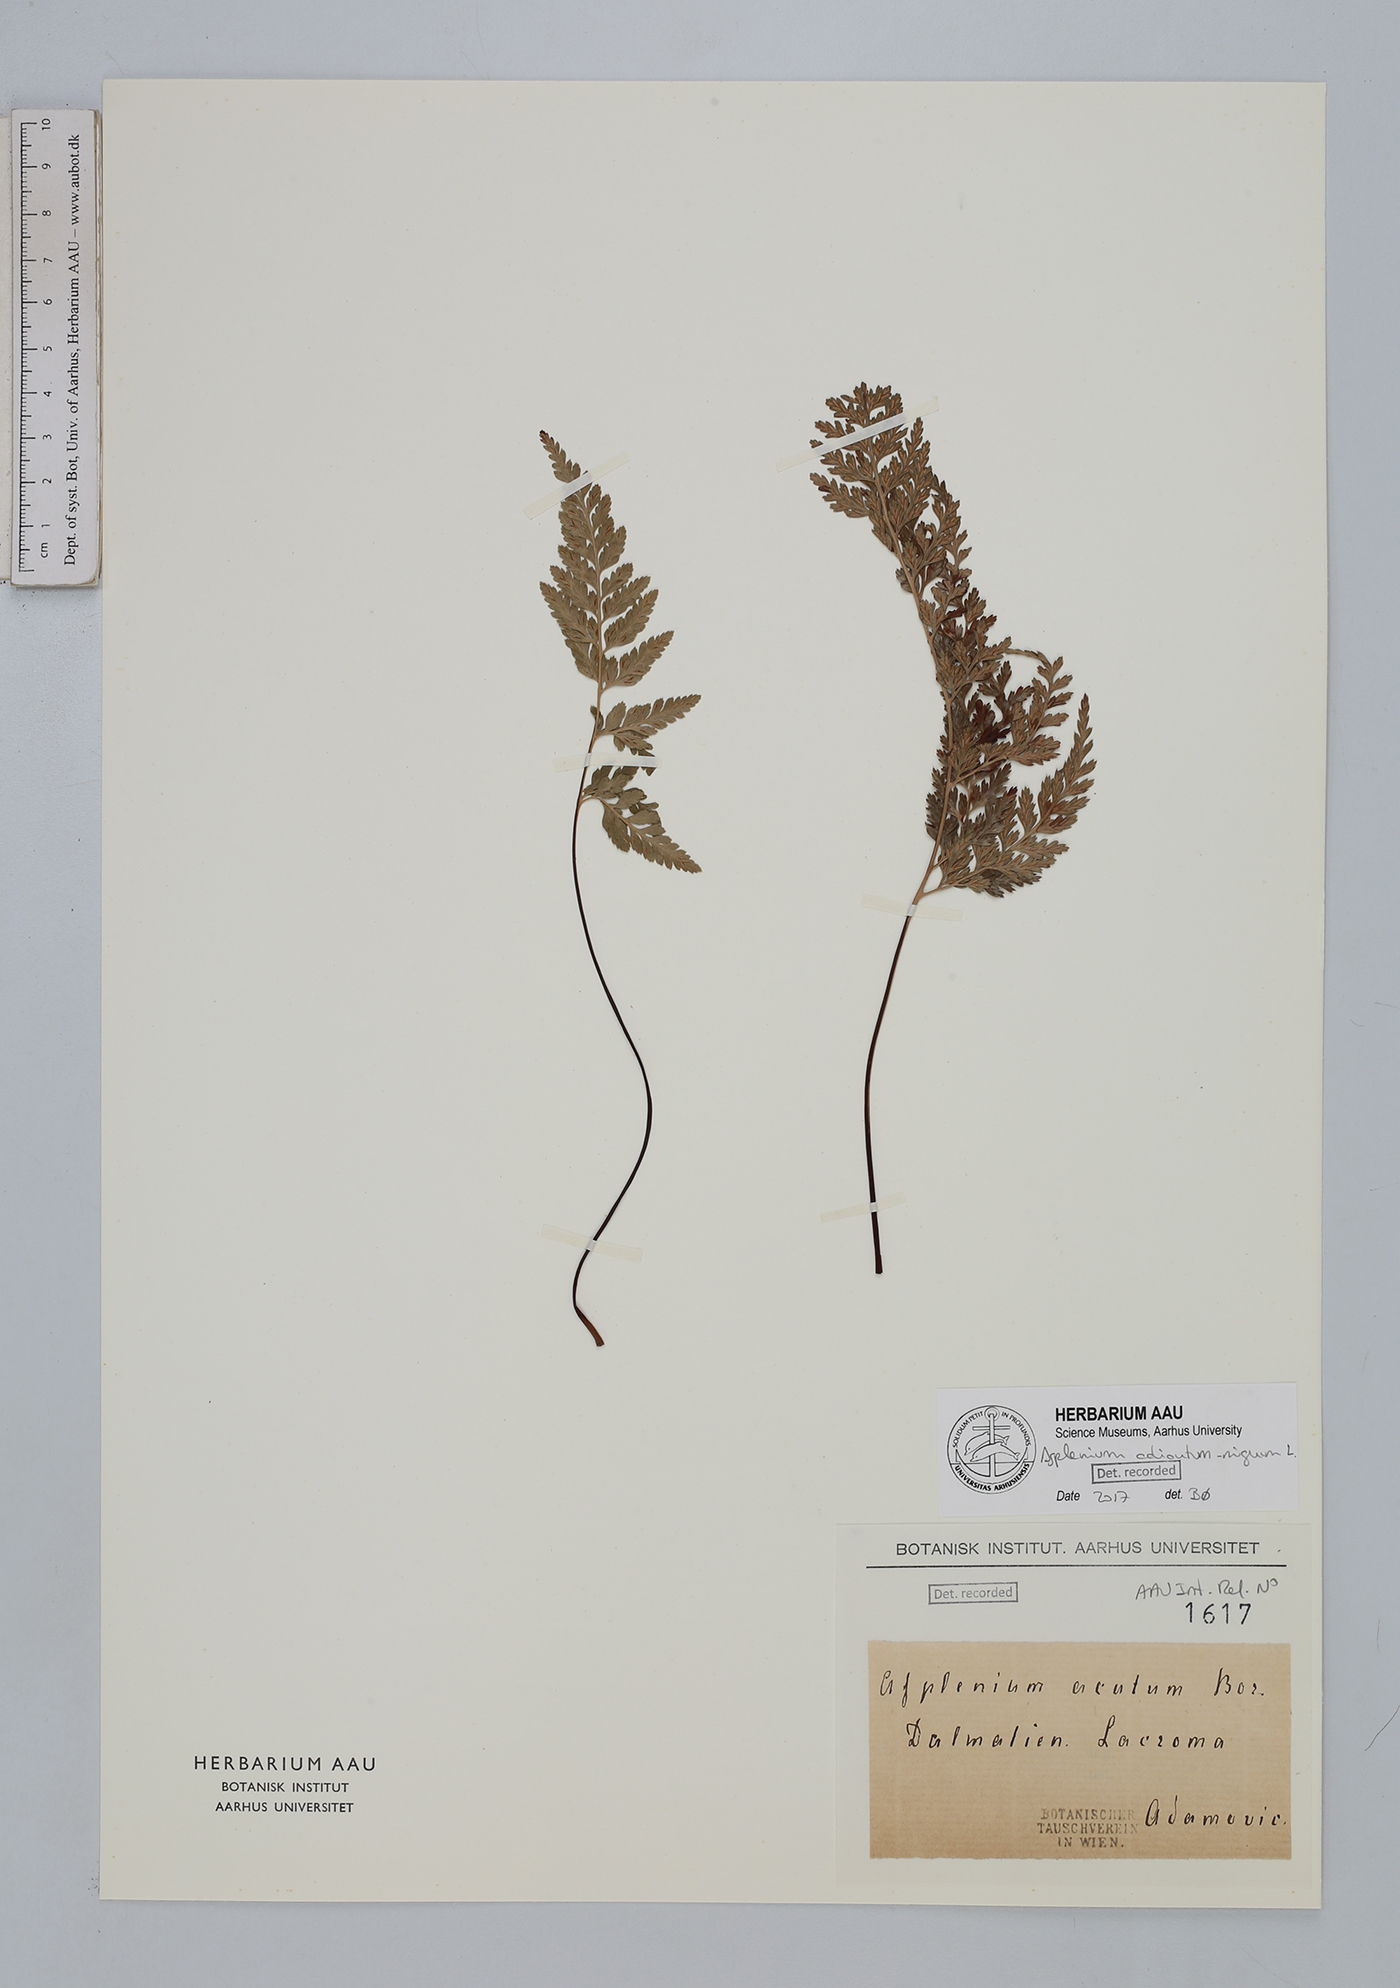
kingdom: Plantae
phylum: Tracheophyta
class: Polypodiopsida
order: Polypodiales
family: Aspleniaceae
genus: Asplenium
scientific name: Asplenium adiantum-nigrum
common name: Black spleenwort
